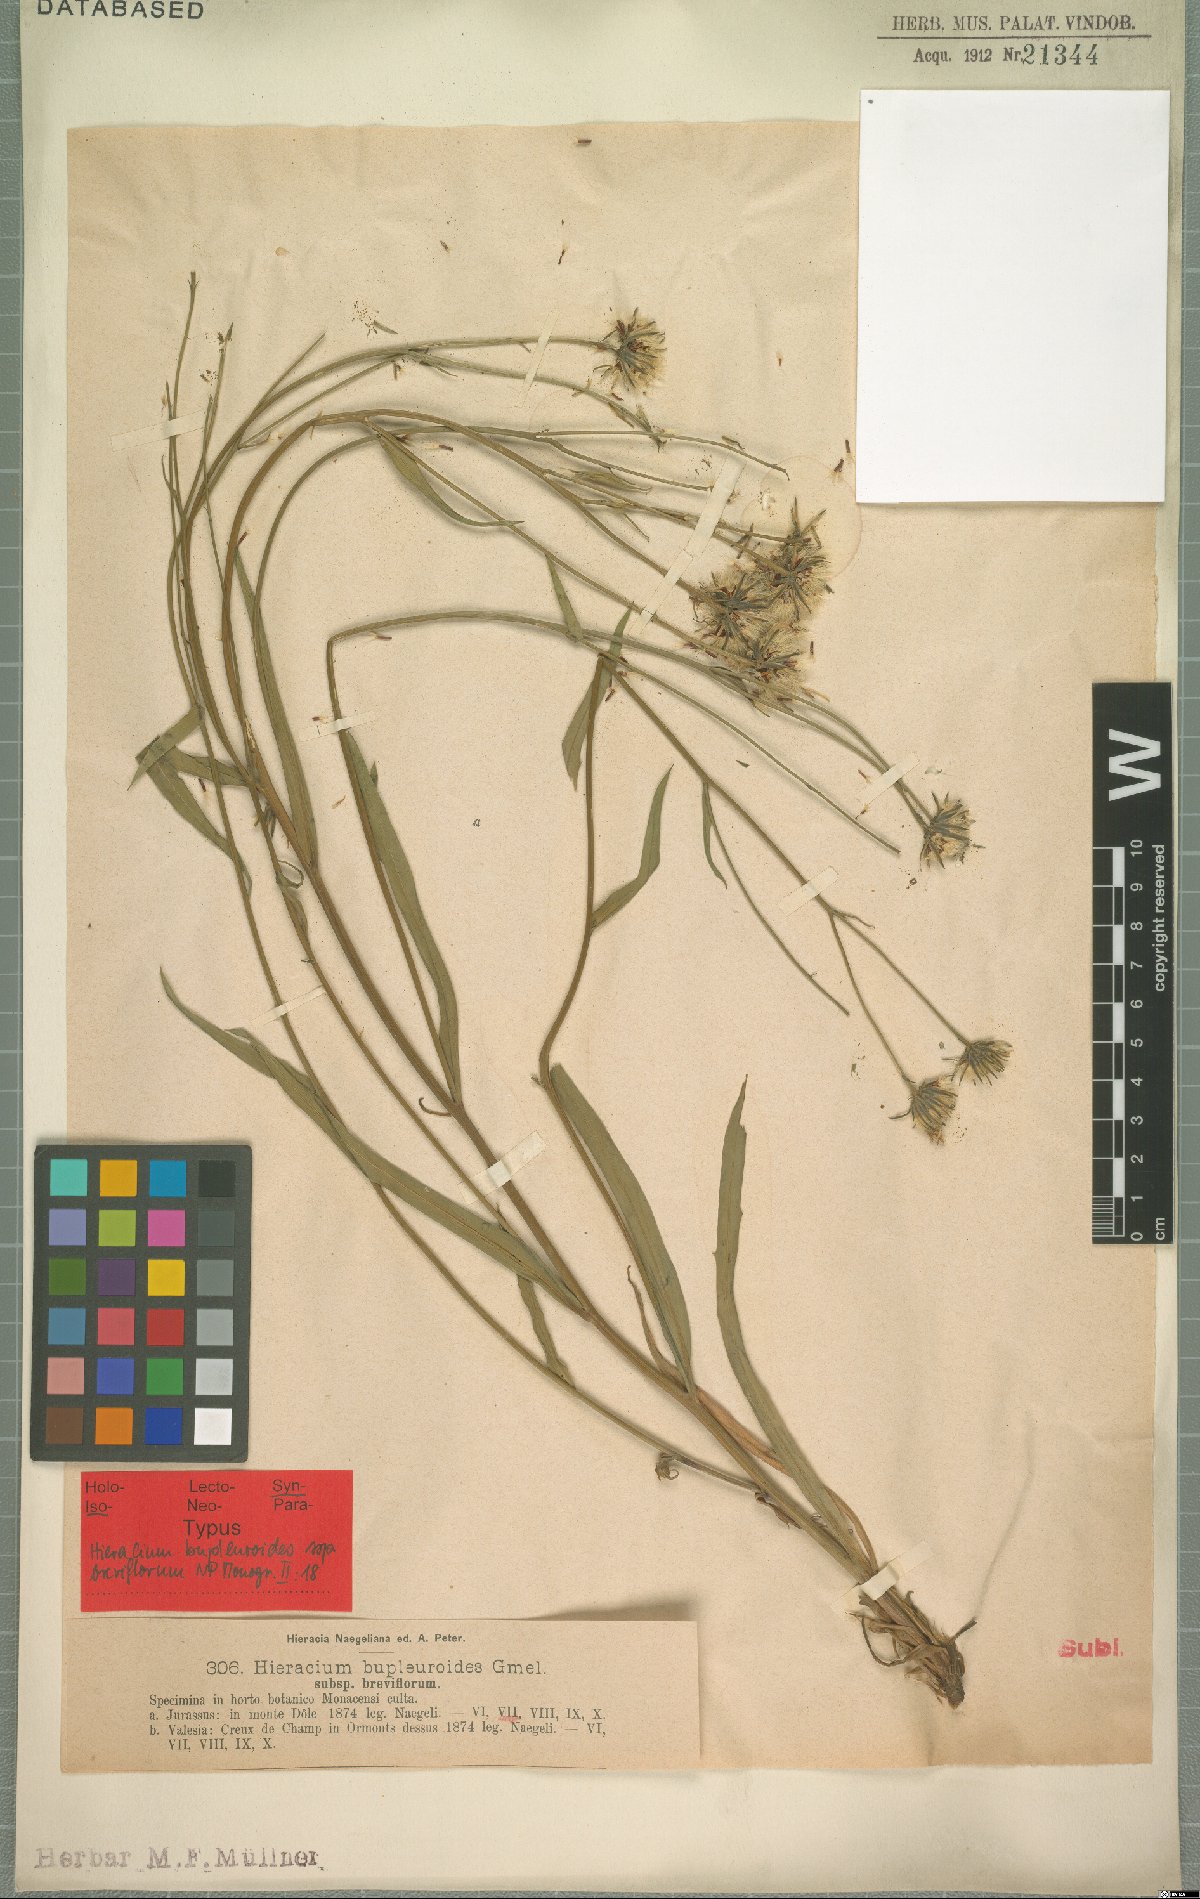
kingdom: Plantae
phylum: Tracheophyta
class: Magnoliopsida
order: Asterales
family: Asteraceae
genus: Hieracium
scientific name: Hieracium bupleuroides
